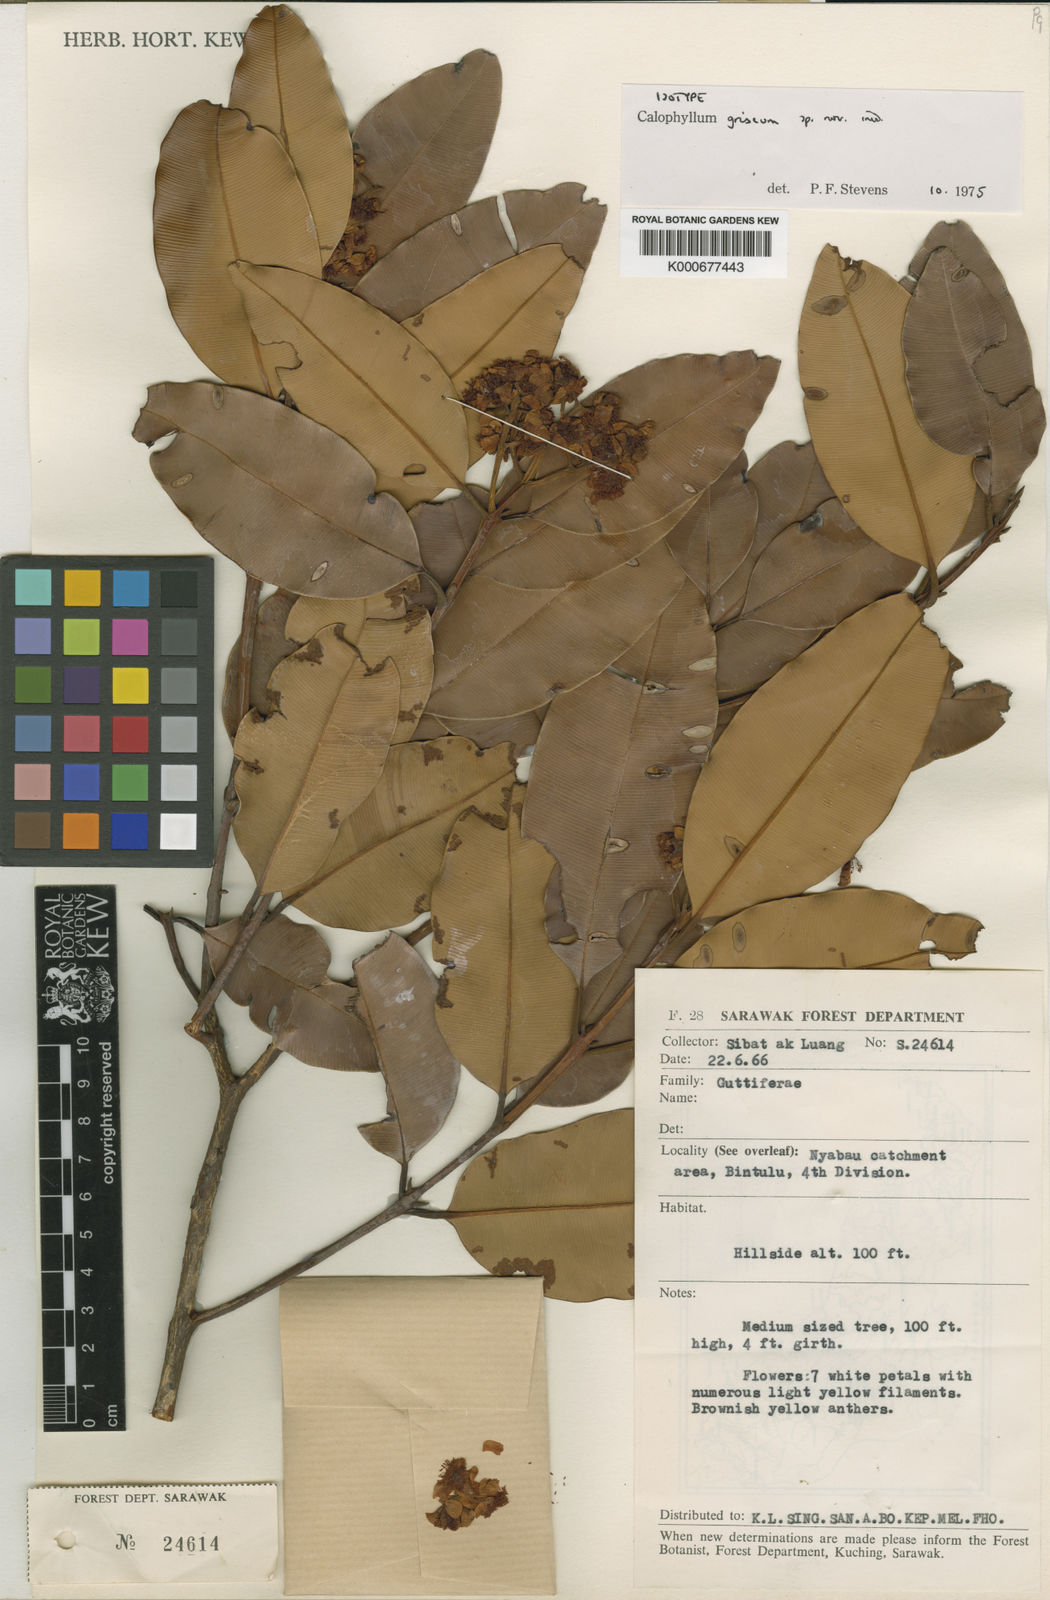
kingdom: Plantae
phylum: Tracheophyta
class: Magnoliopsida
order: Malpighiales
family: Calophyllaceae
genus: Calophyllum
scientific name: Calophyllum griseum
